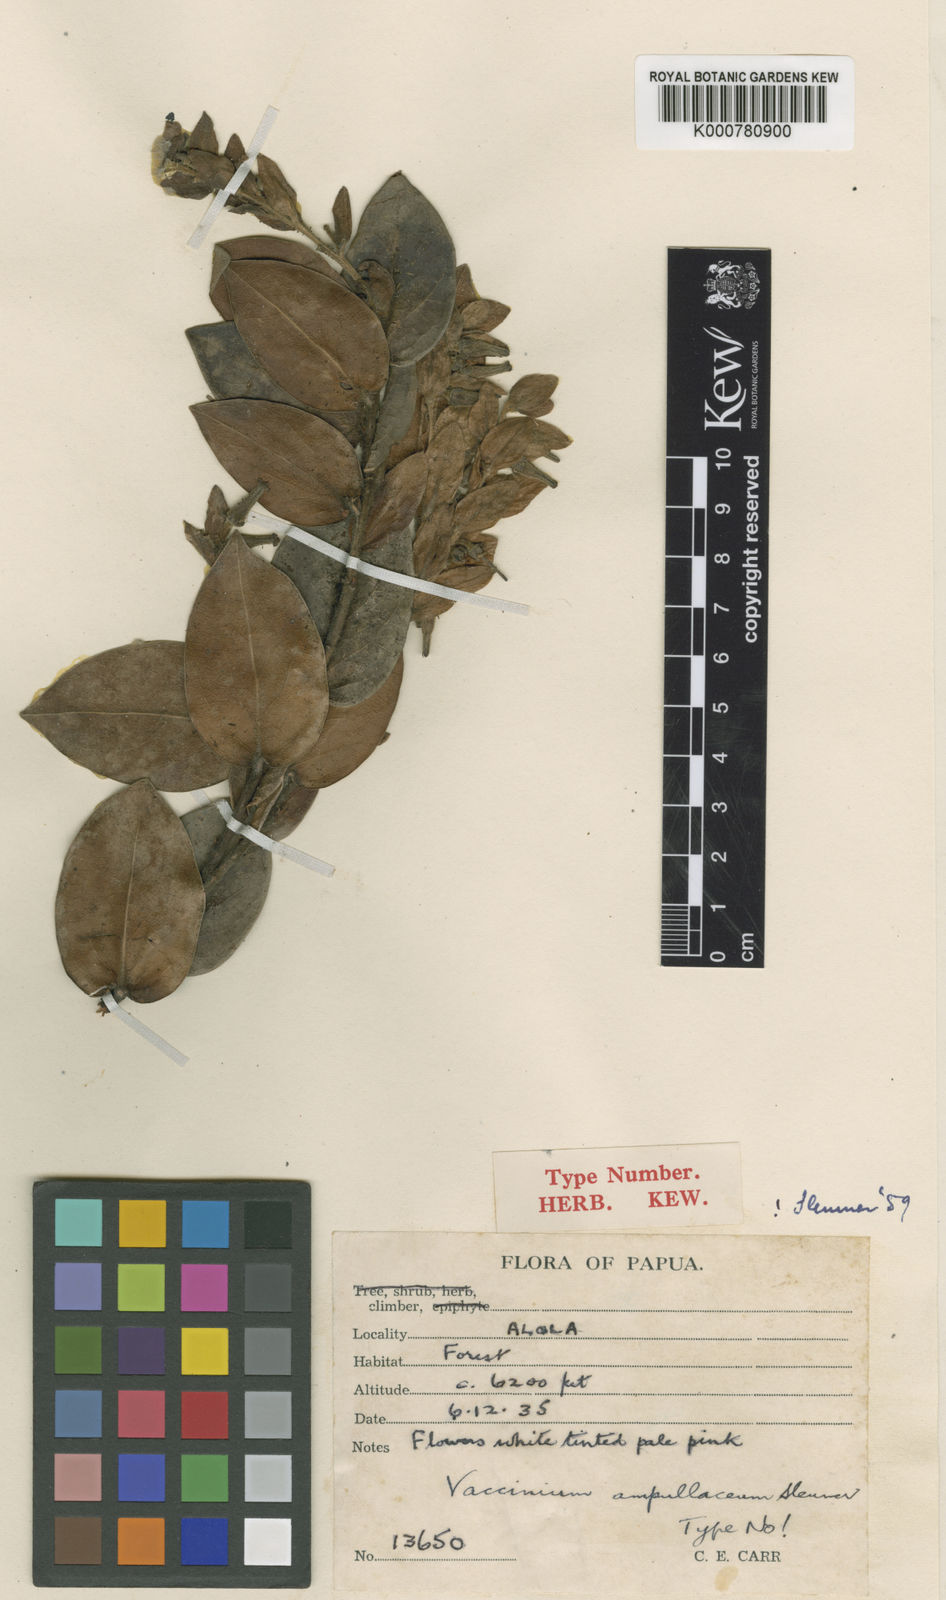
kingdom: Plantae
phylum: Tracheophyta
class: Magnoliopsida
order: Ericales
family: Ericaceae
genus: Vaccinium
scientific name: Vaccinium ampullaceum
